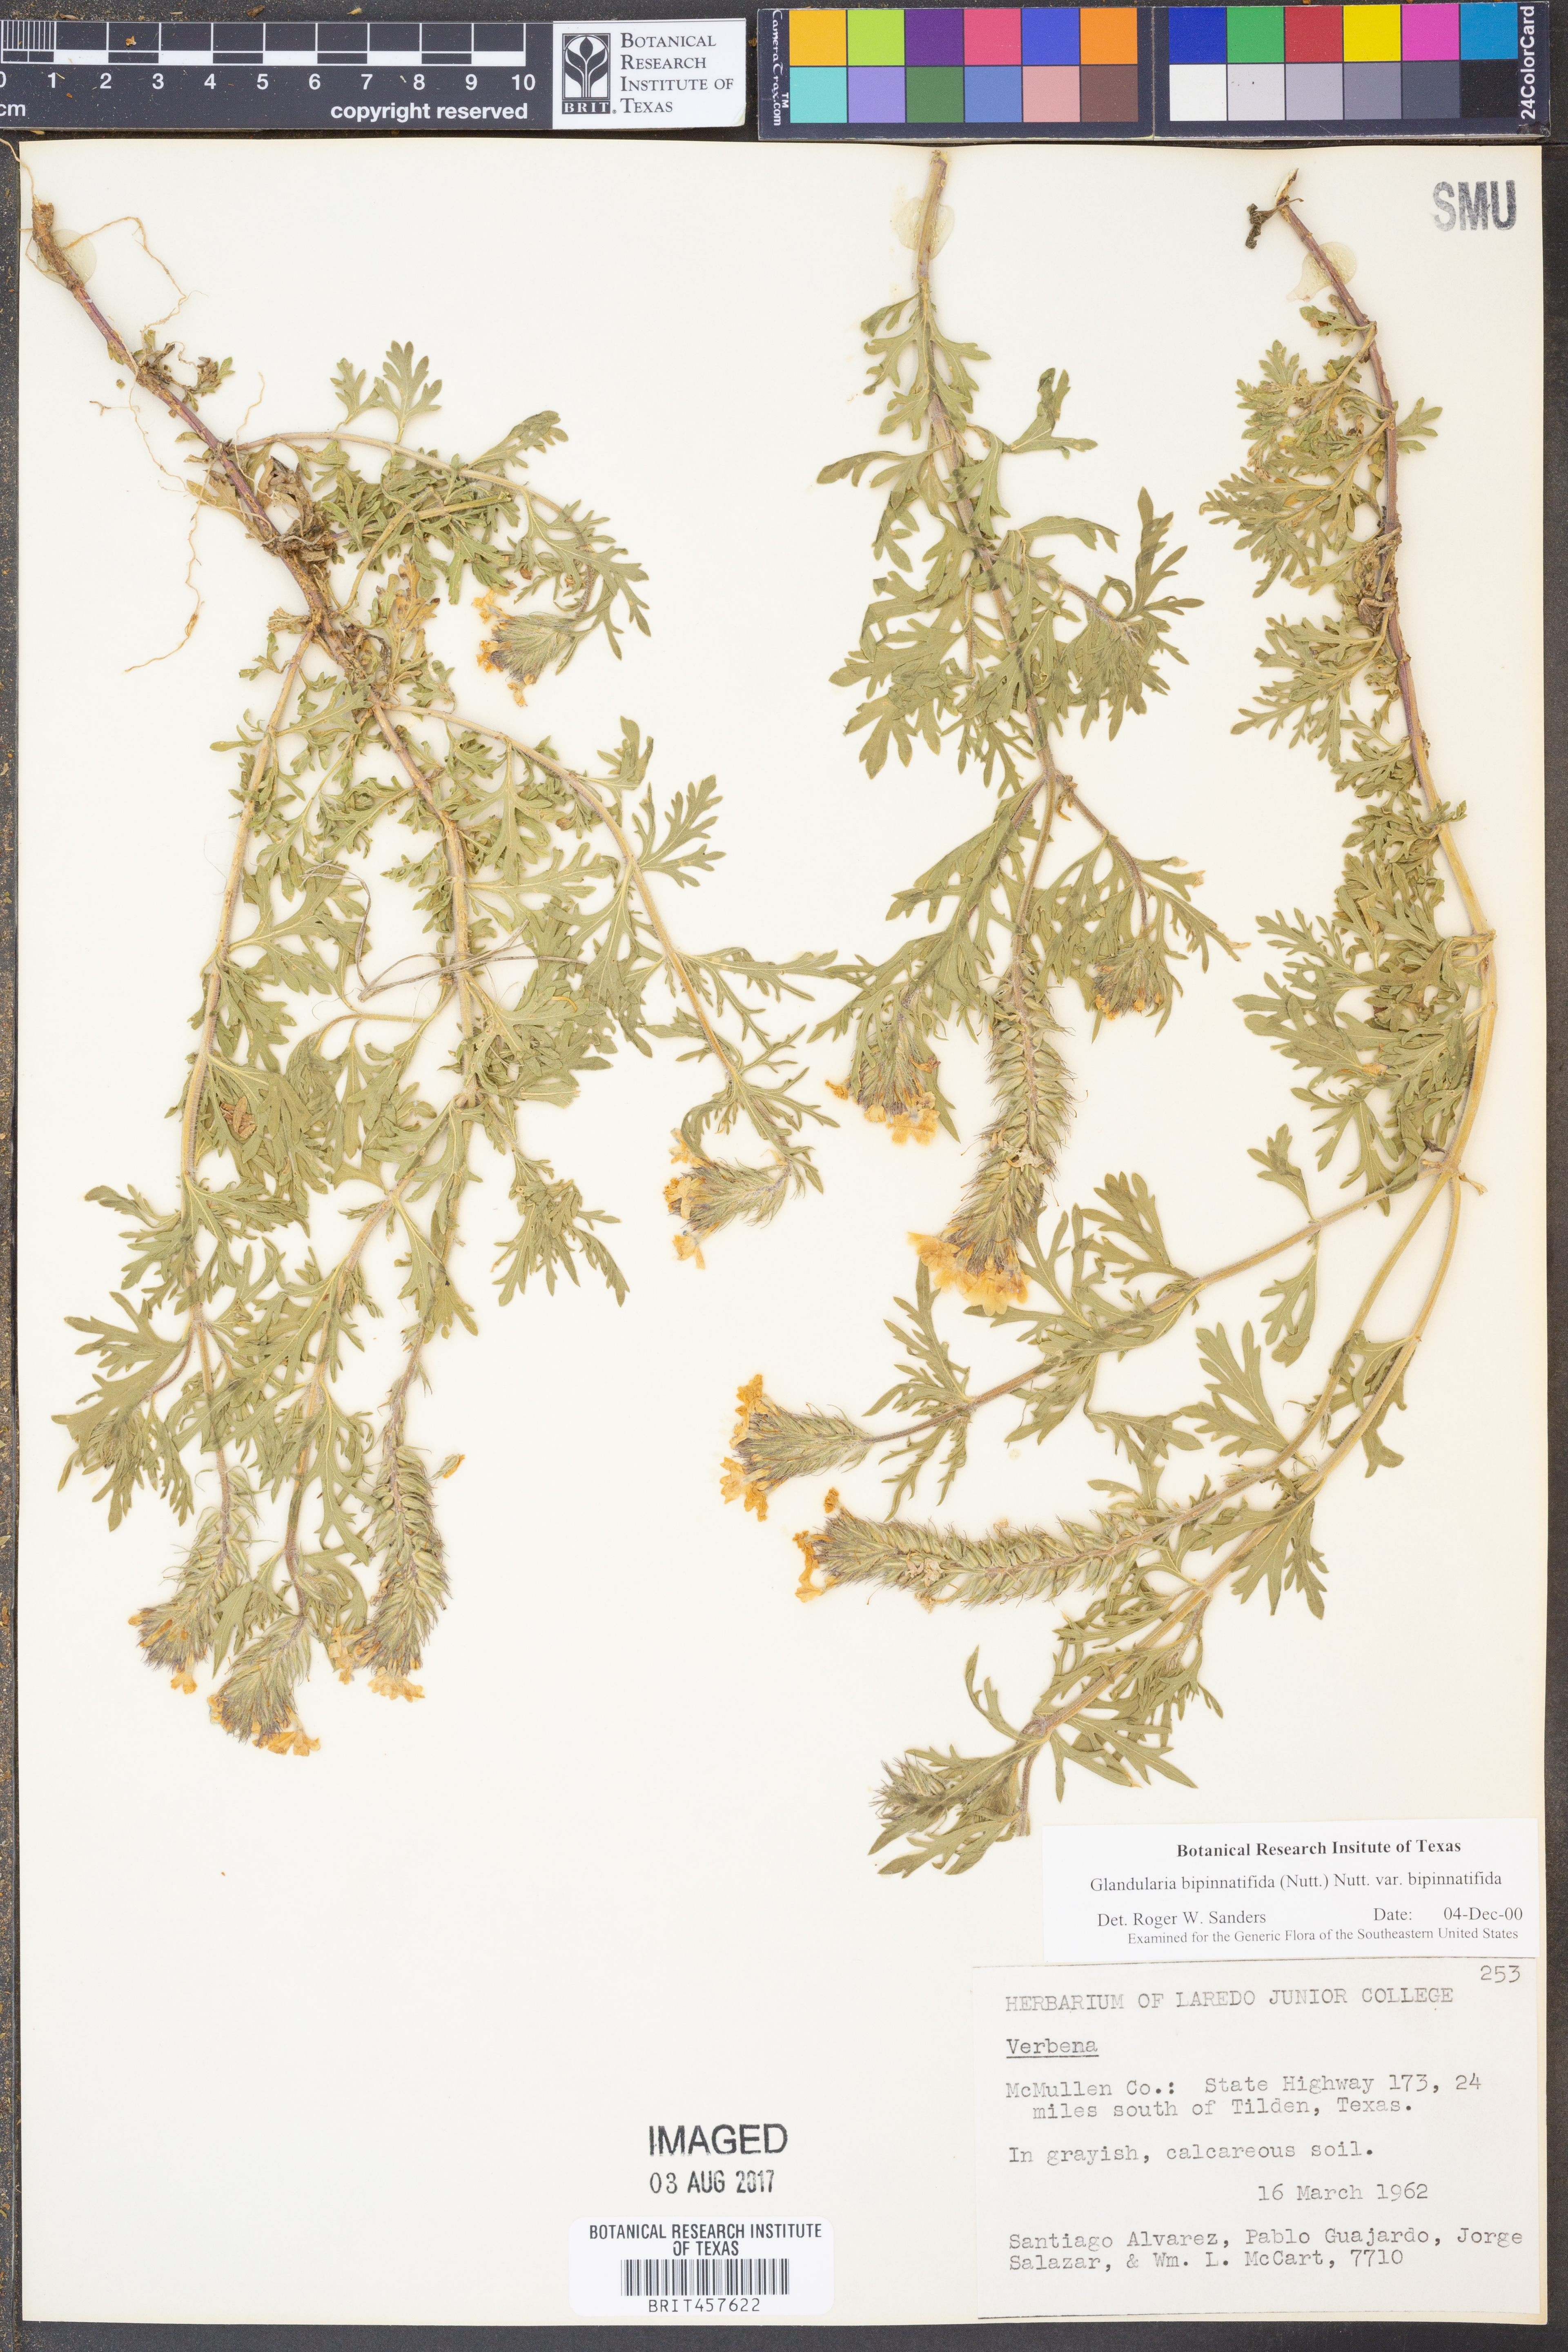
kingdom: Plantae
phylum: Tracheophyta
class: Magnoliopsida
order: Lamiales
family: Verbenaceae
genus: Verbena
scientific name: Verbena bipinnatifida
